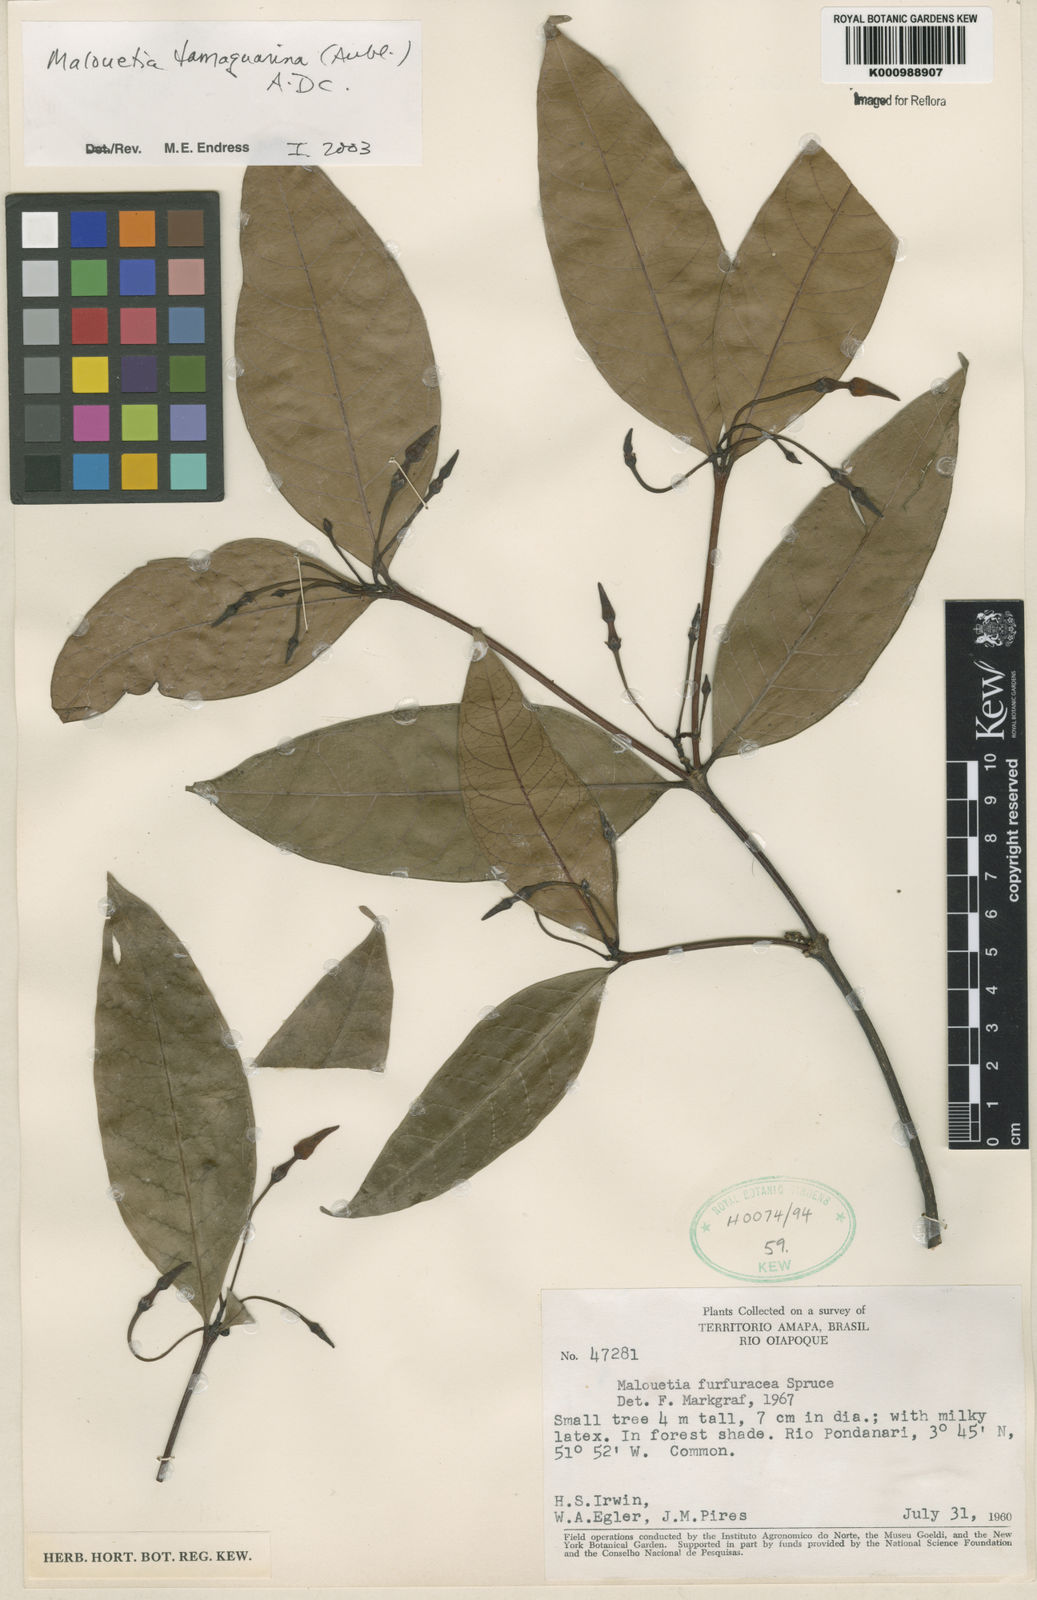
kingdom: Plantae
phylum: Tracheophyta
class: Magnoliopsida
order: Gentianales
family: Apocynaceae
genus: Malouetia
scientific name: Malouetia tamaquarina
